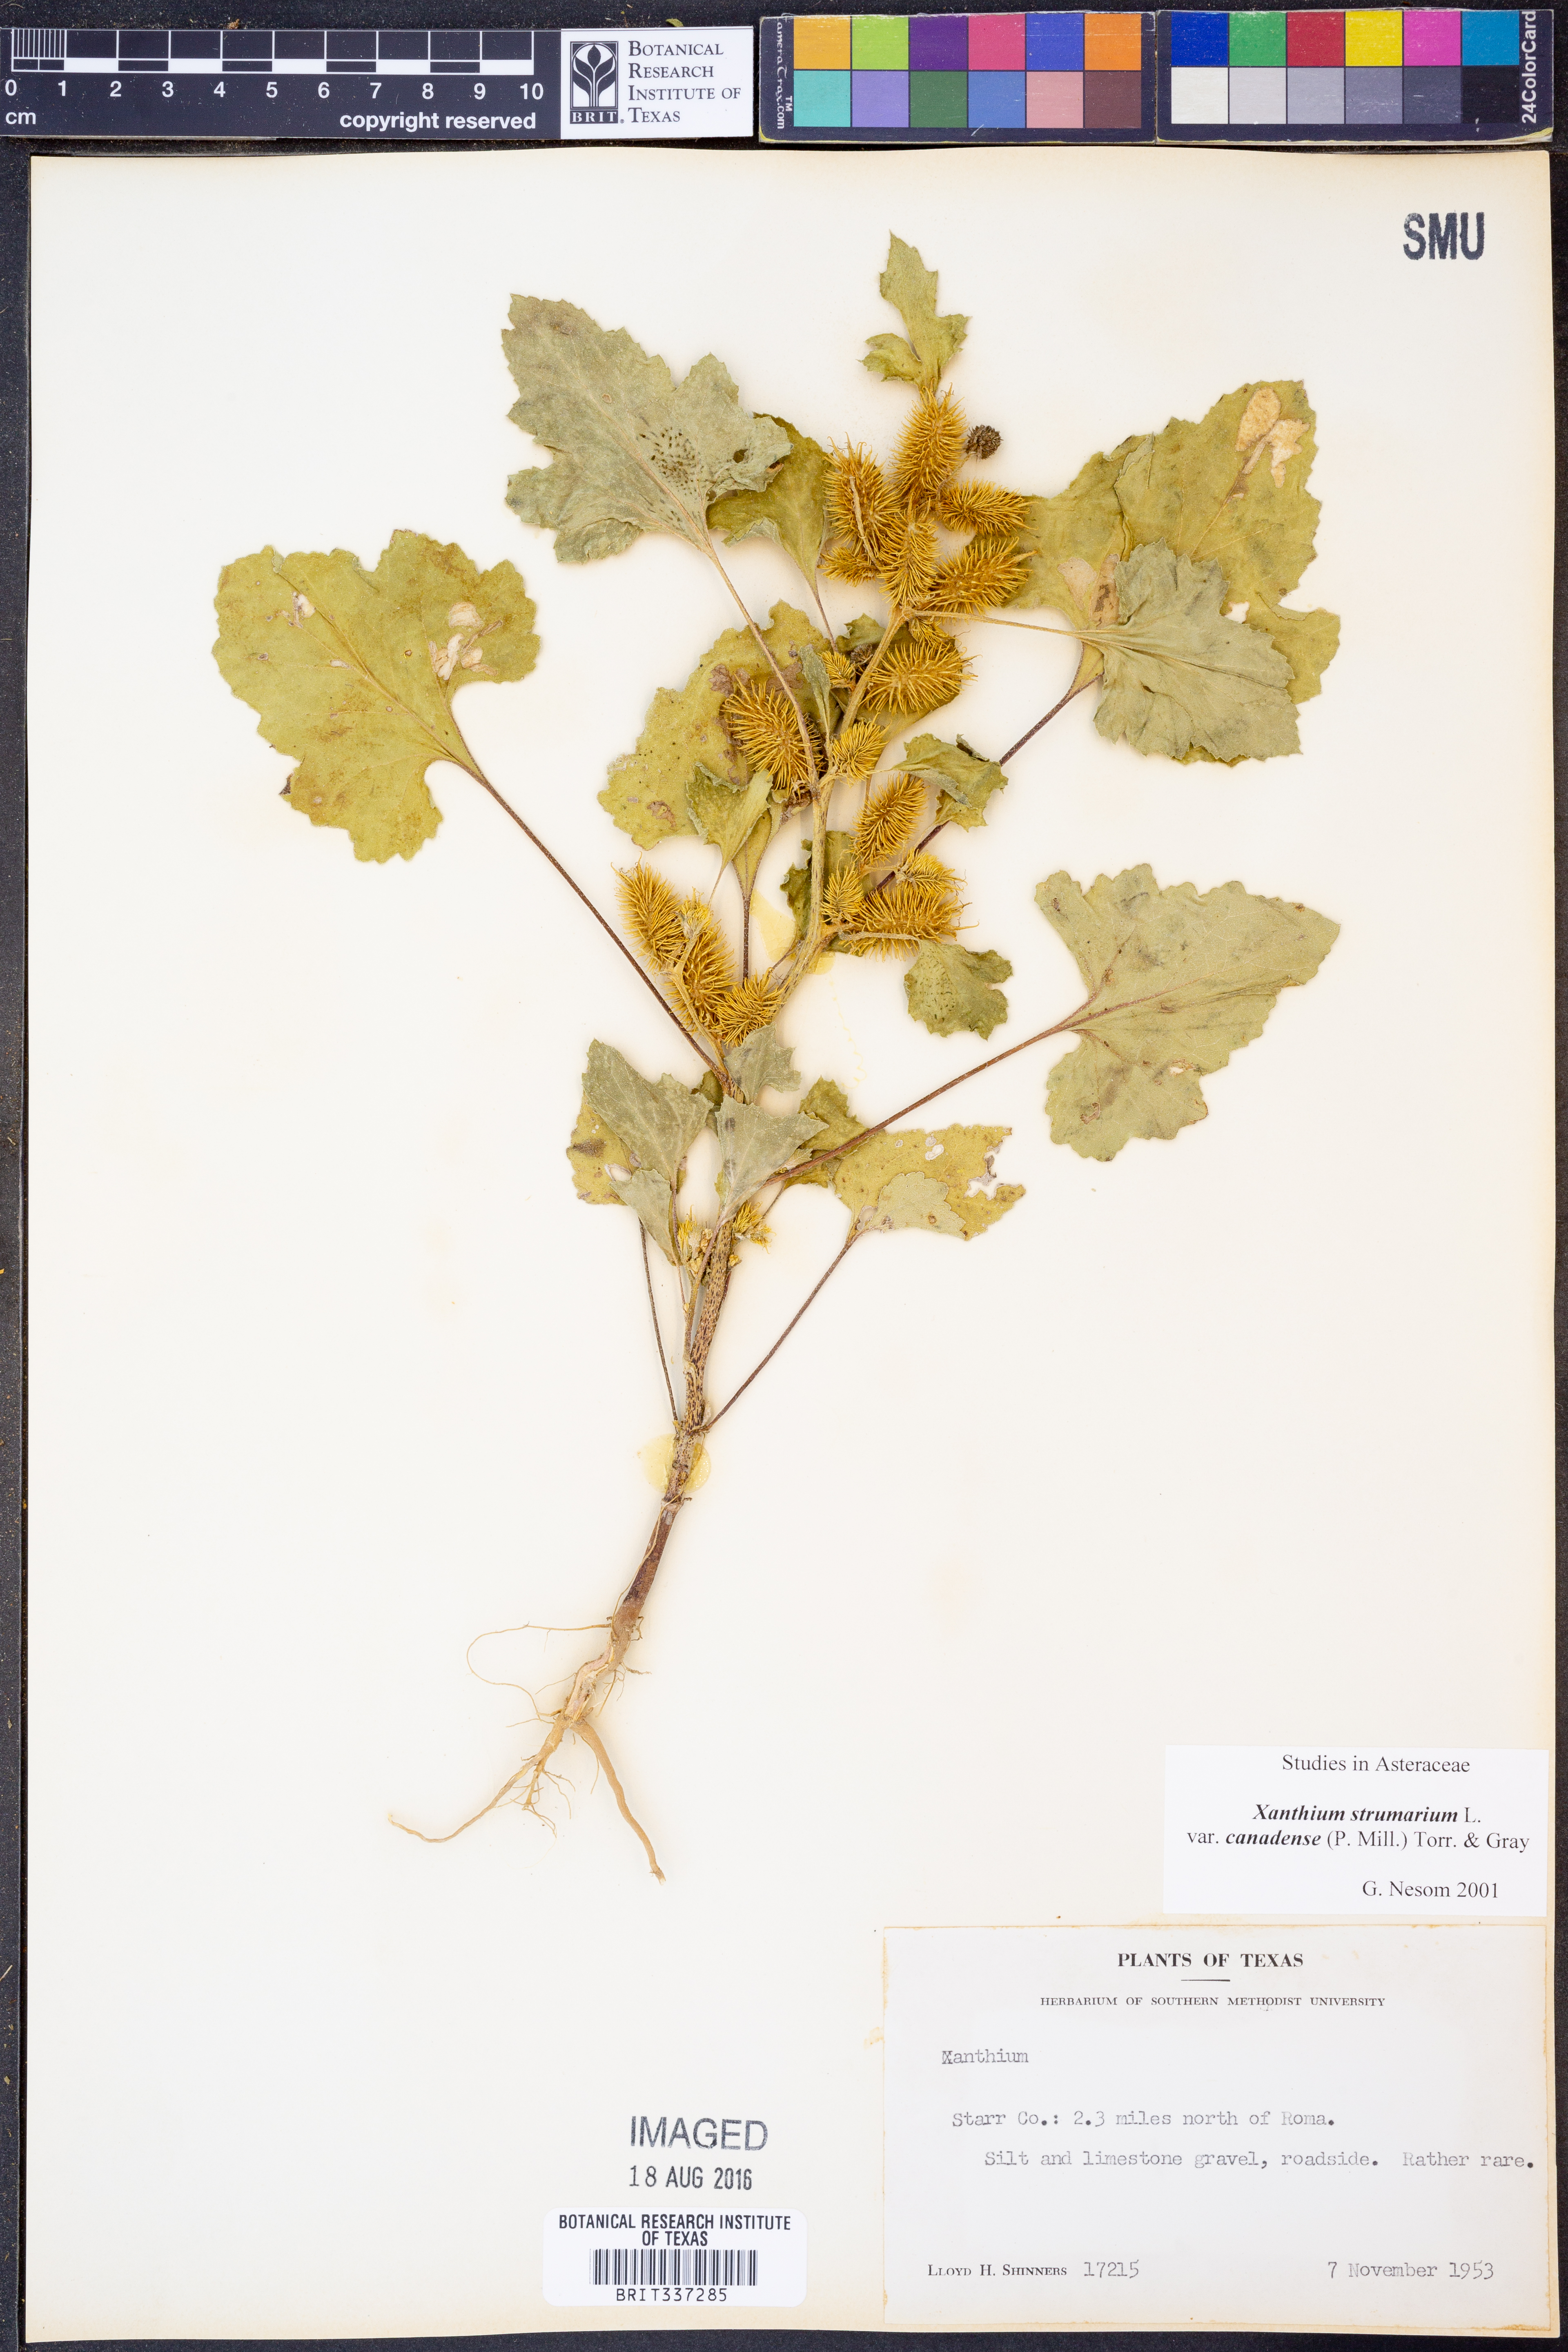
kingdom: Plantae
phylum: Tracheophyta
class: Magnoliopsida
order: Asterales
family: Asteraceae
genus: Xanthium
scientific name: Xanthium orientale
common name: Californian burr
